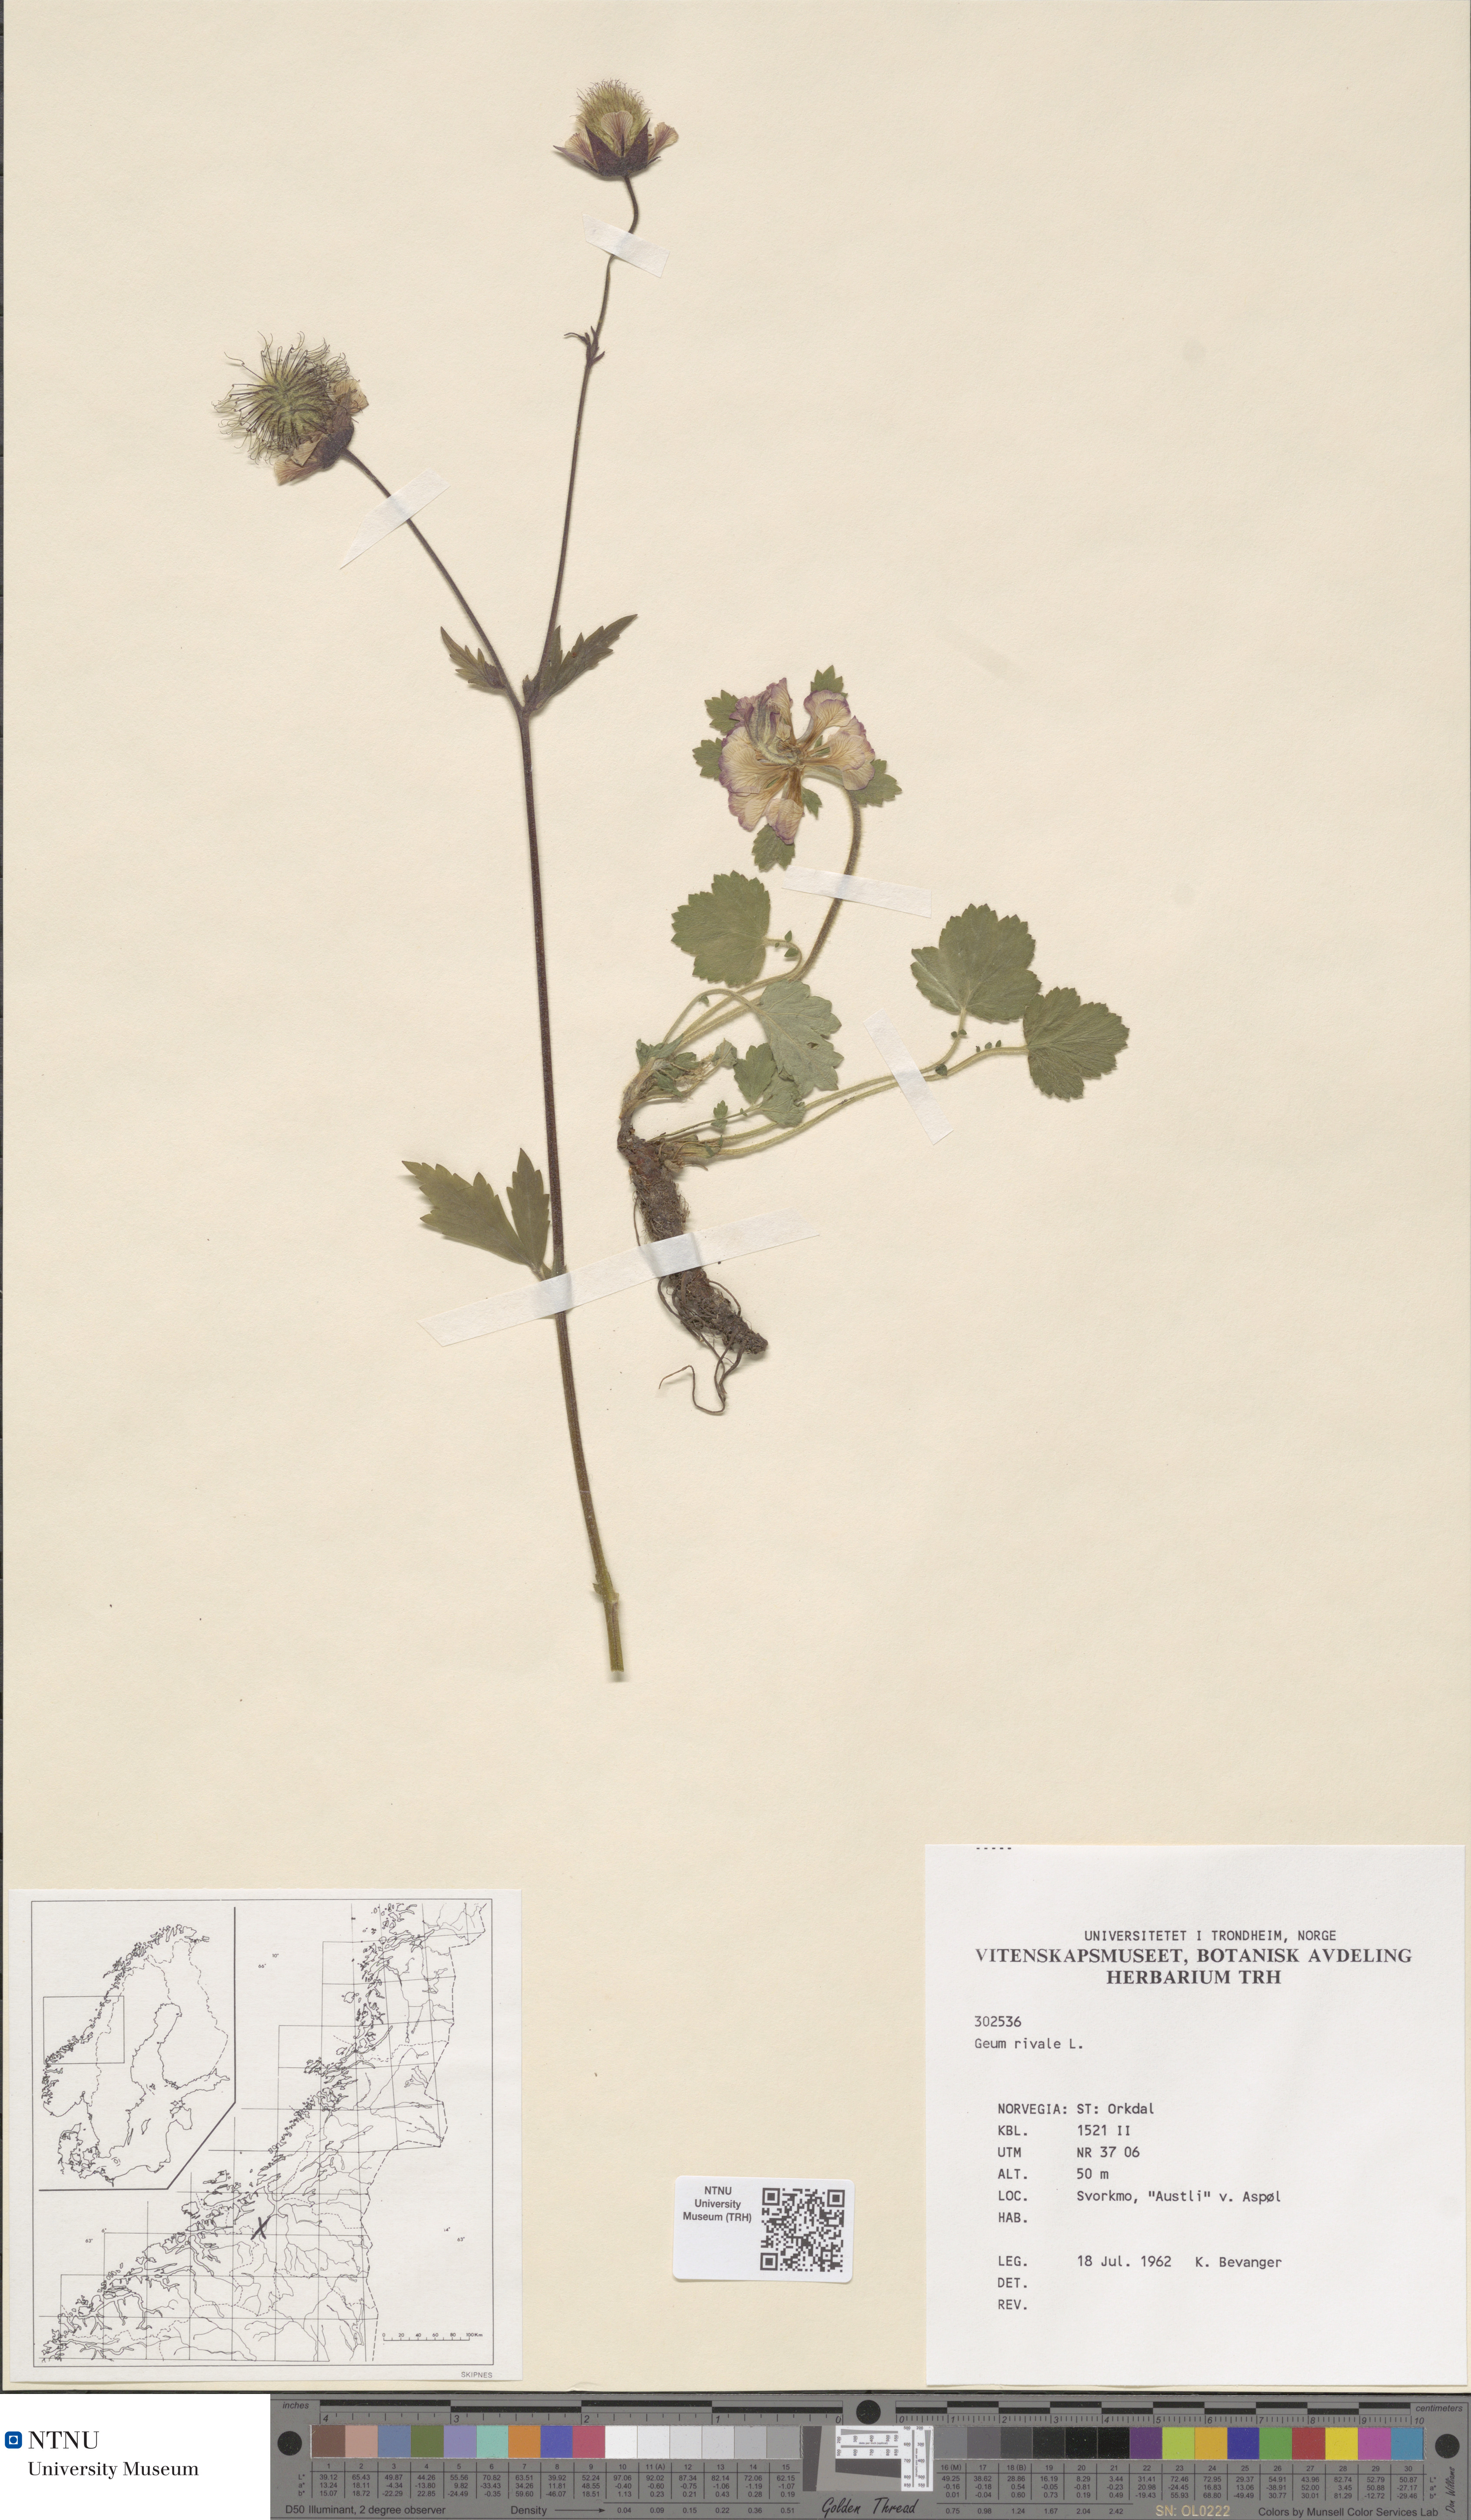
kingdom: Plantae
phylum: Tracheophyta
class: Magnoliopsida
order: Rosales
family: Rosaceae
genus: Geum
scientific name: Geum rivale
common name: Water avens
